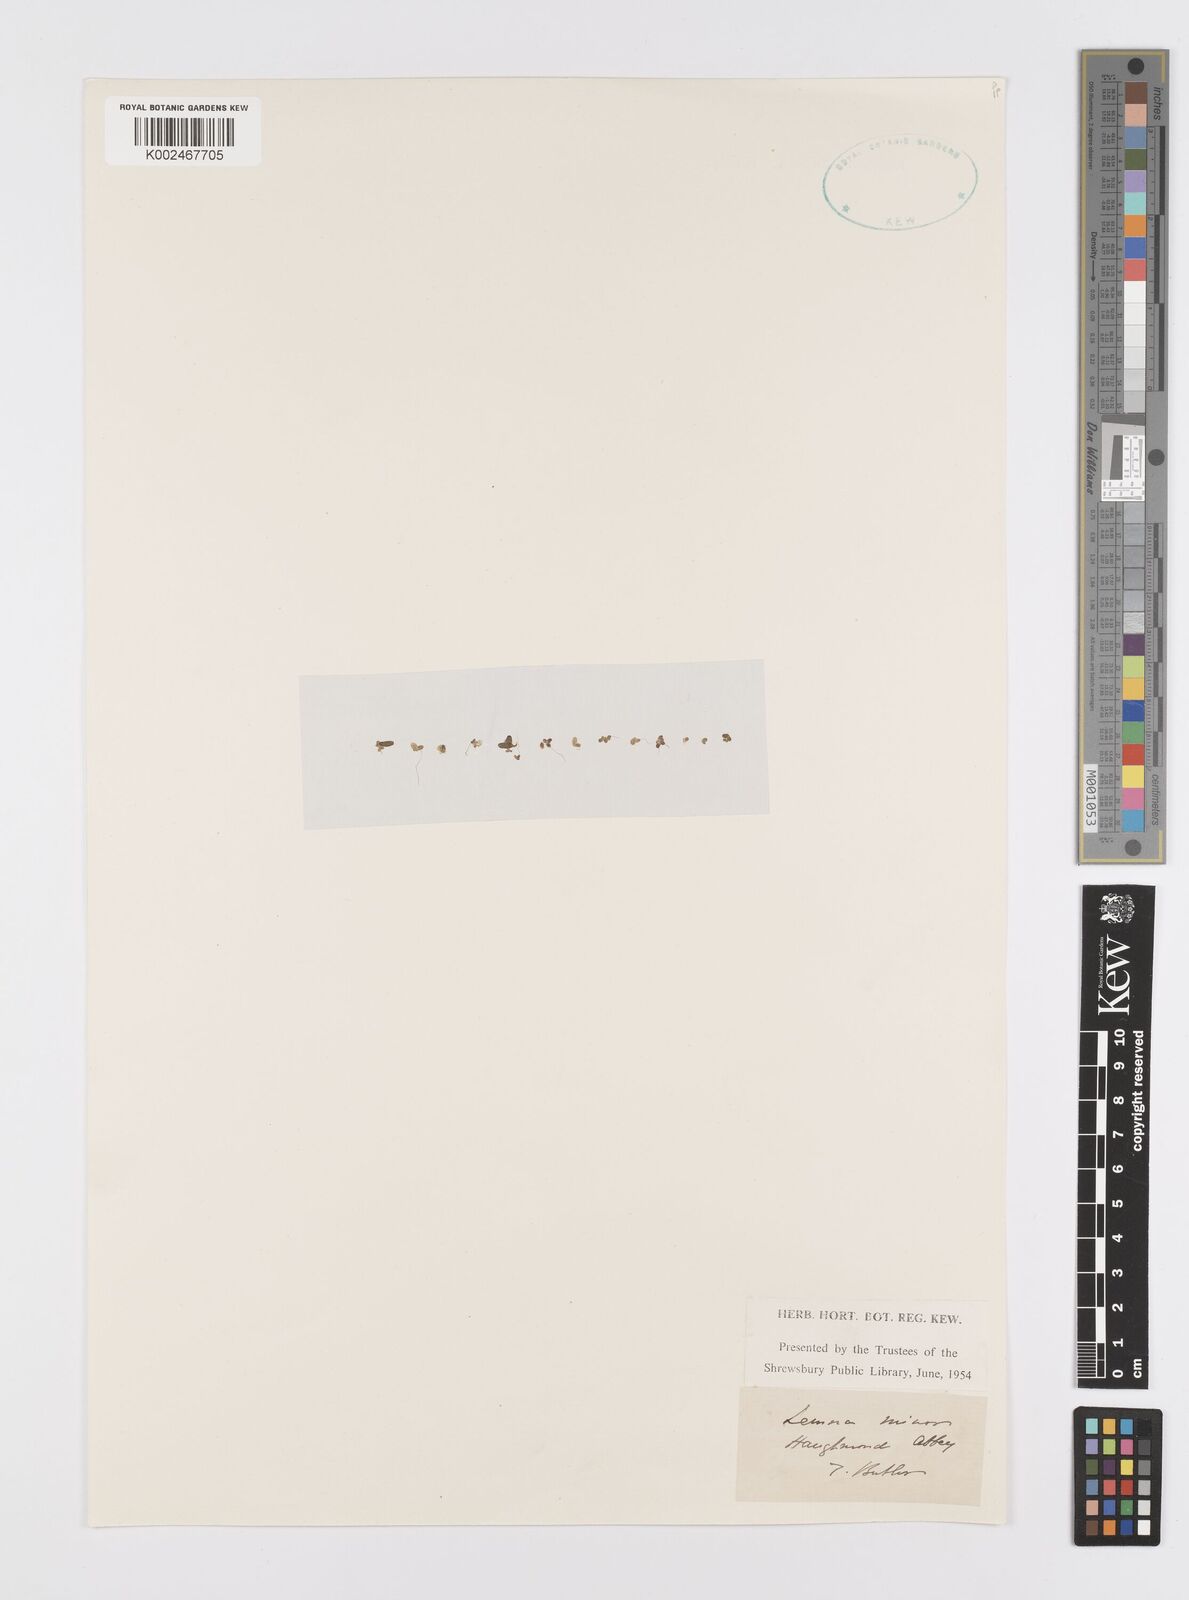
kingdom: Plantae
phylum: Tracheophyta
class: Liliopsida
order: Alismatales
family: Araceae
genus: Lemna
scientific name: Lemna minor
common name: Common duckweed
